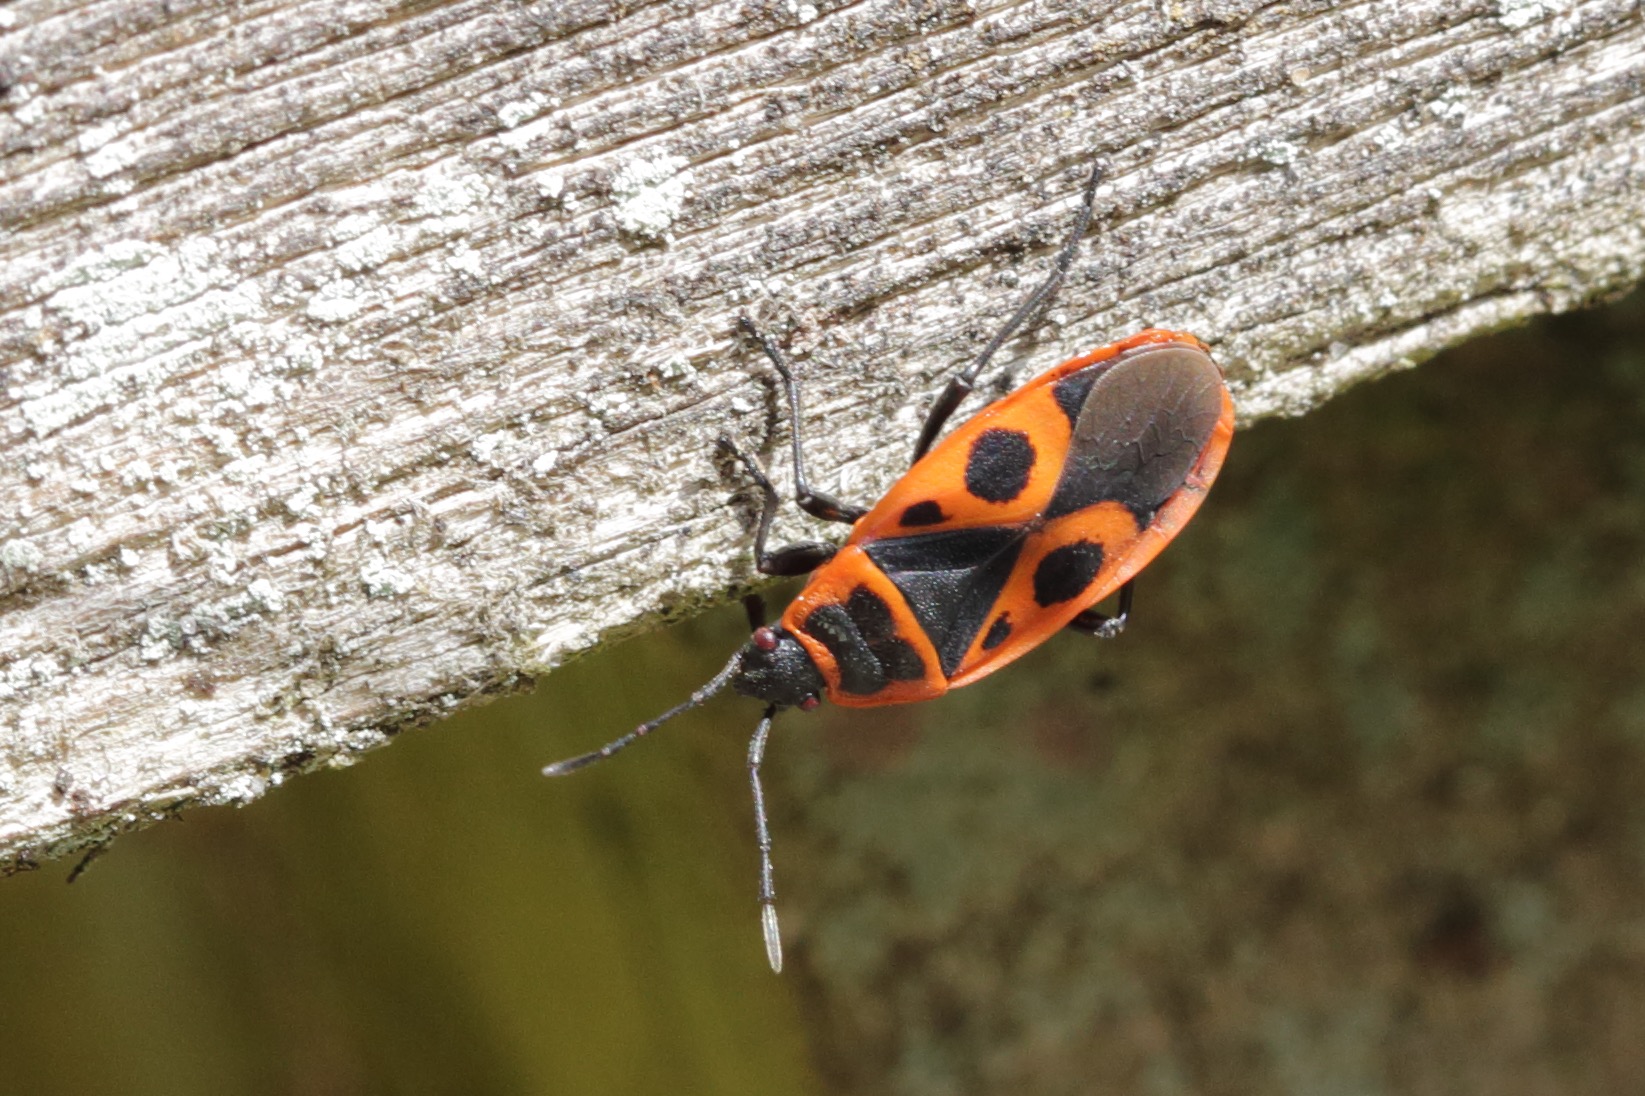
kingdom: Animalia
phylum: Arthropoda
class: Insecta
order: Hemiptera
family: Pyrrhocoridae
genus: Pyrrhocoris
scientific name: Pyrrhocoris apterus
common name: Ildtæge
